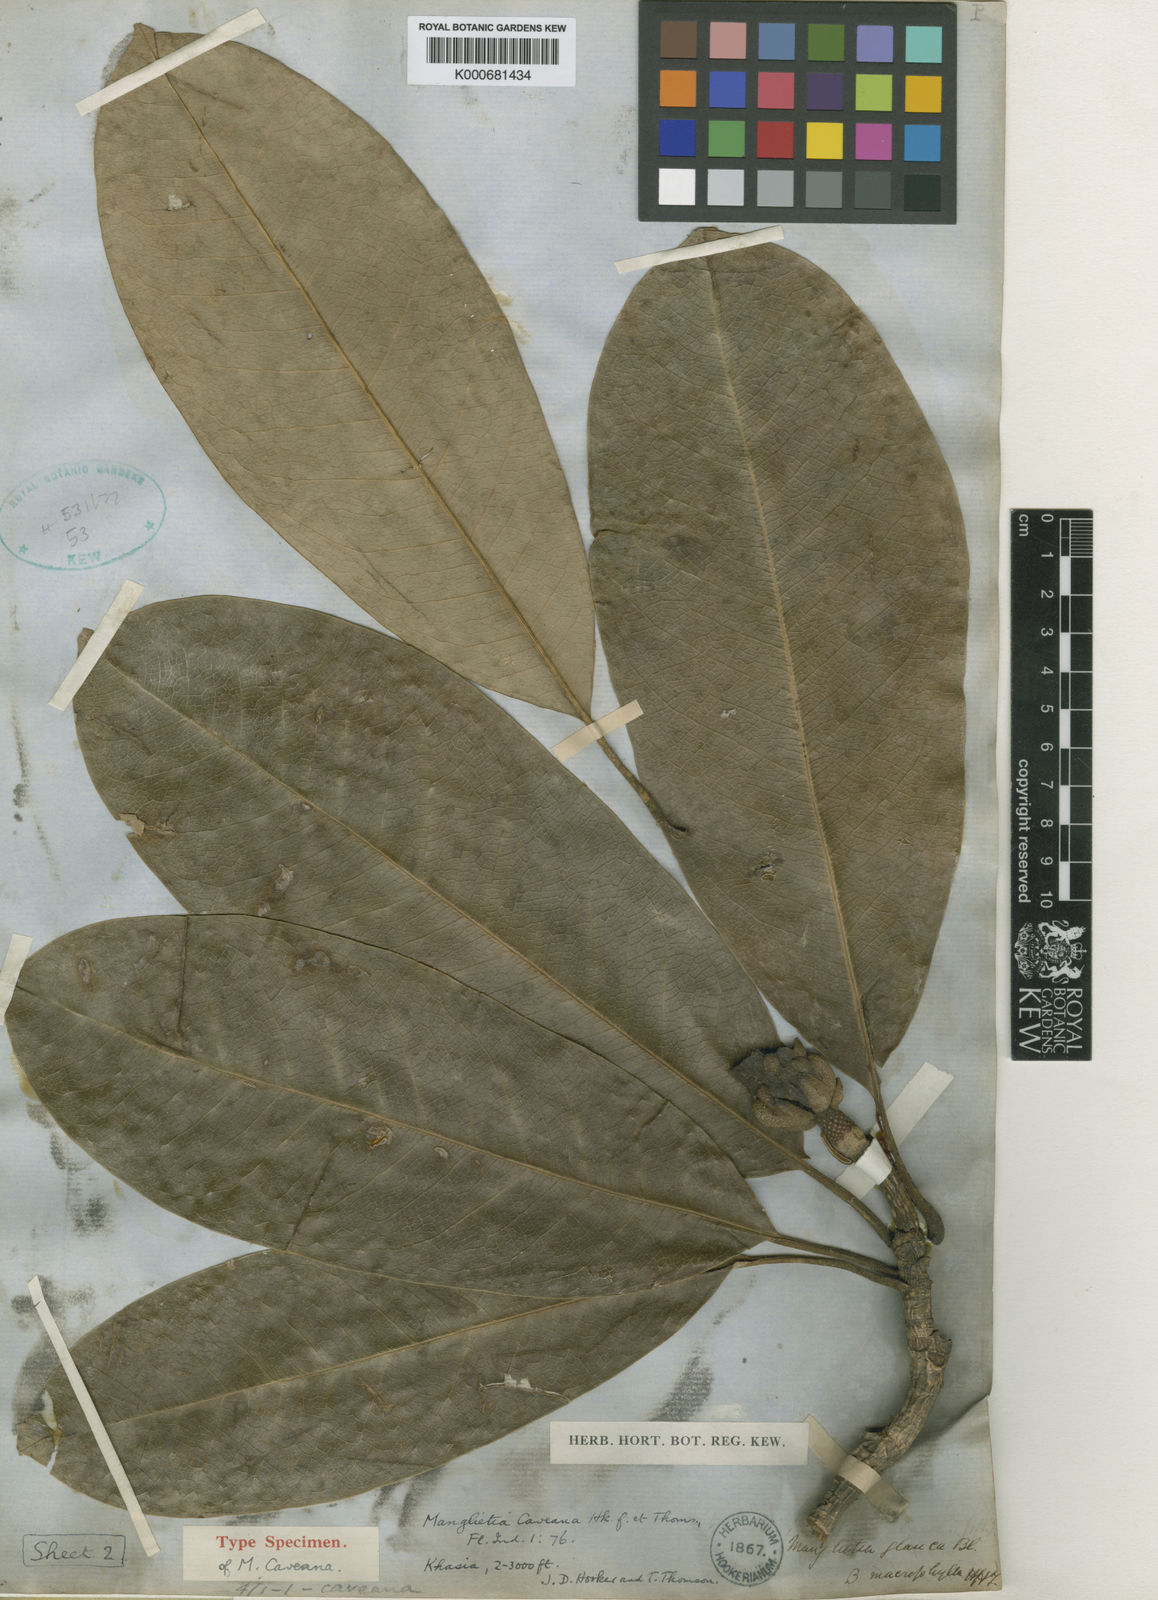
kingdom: Plantae
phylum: Tracheophyta
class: Magnoliopsida
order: Magnoliales
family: Magnoliaceae
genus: Magnolia
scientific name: Magnolia caveana
